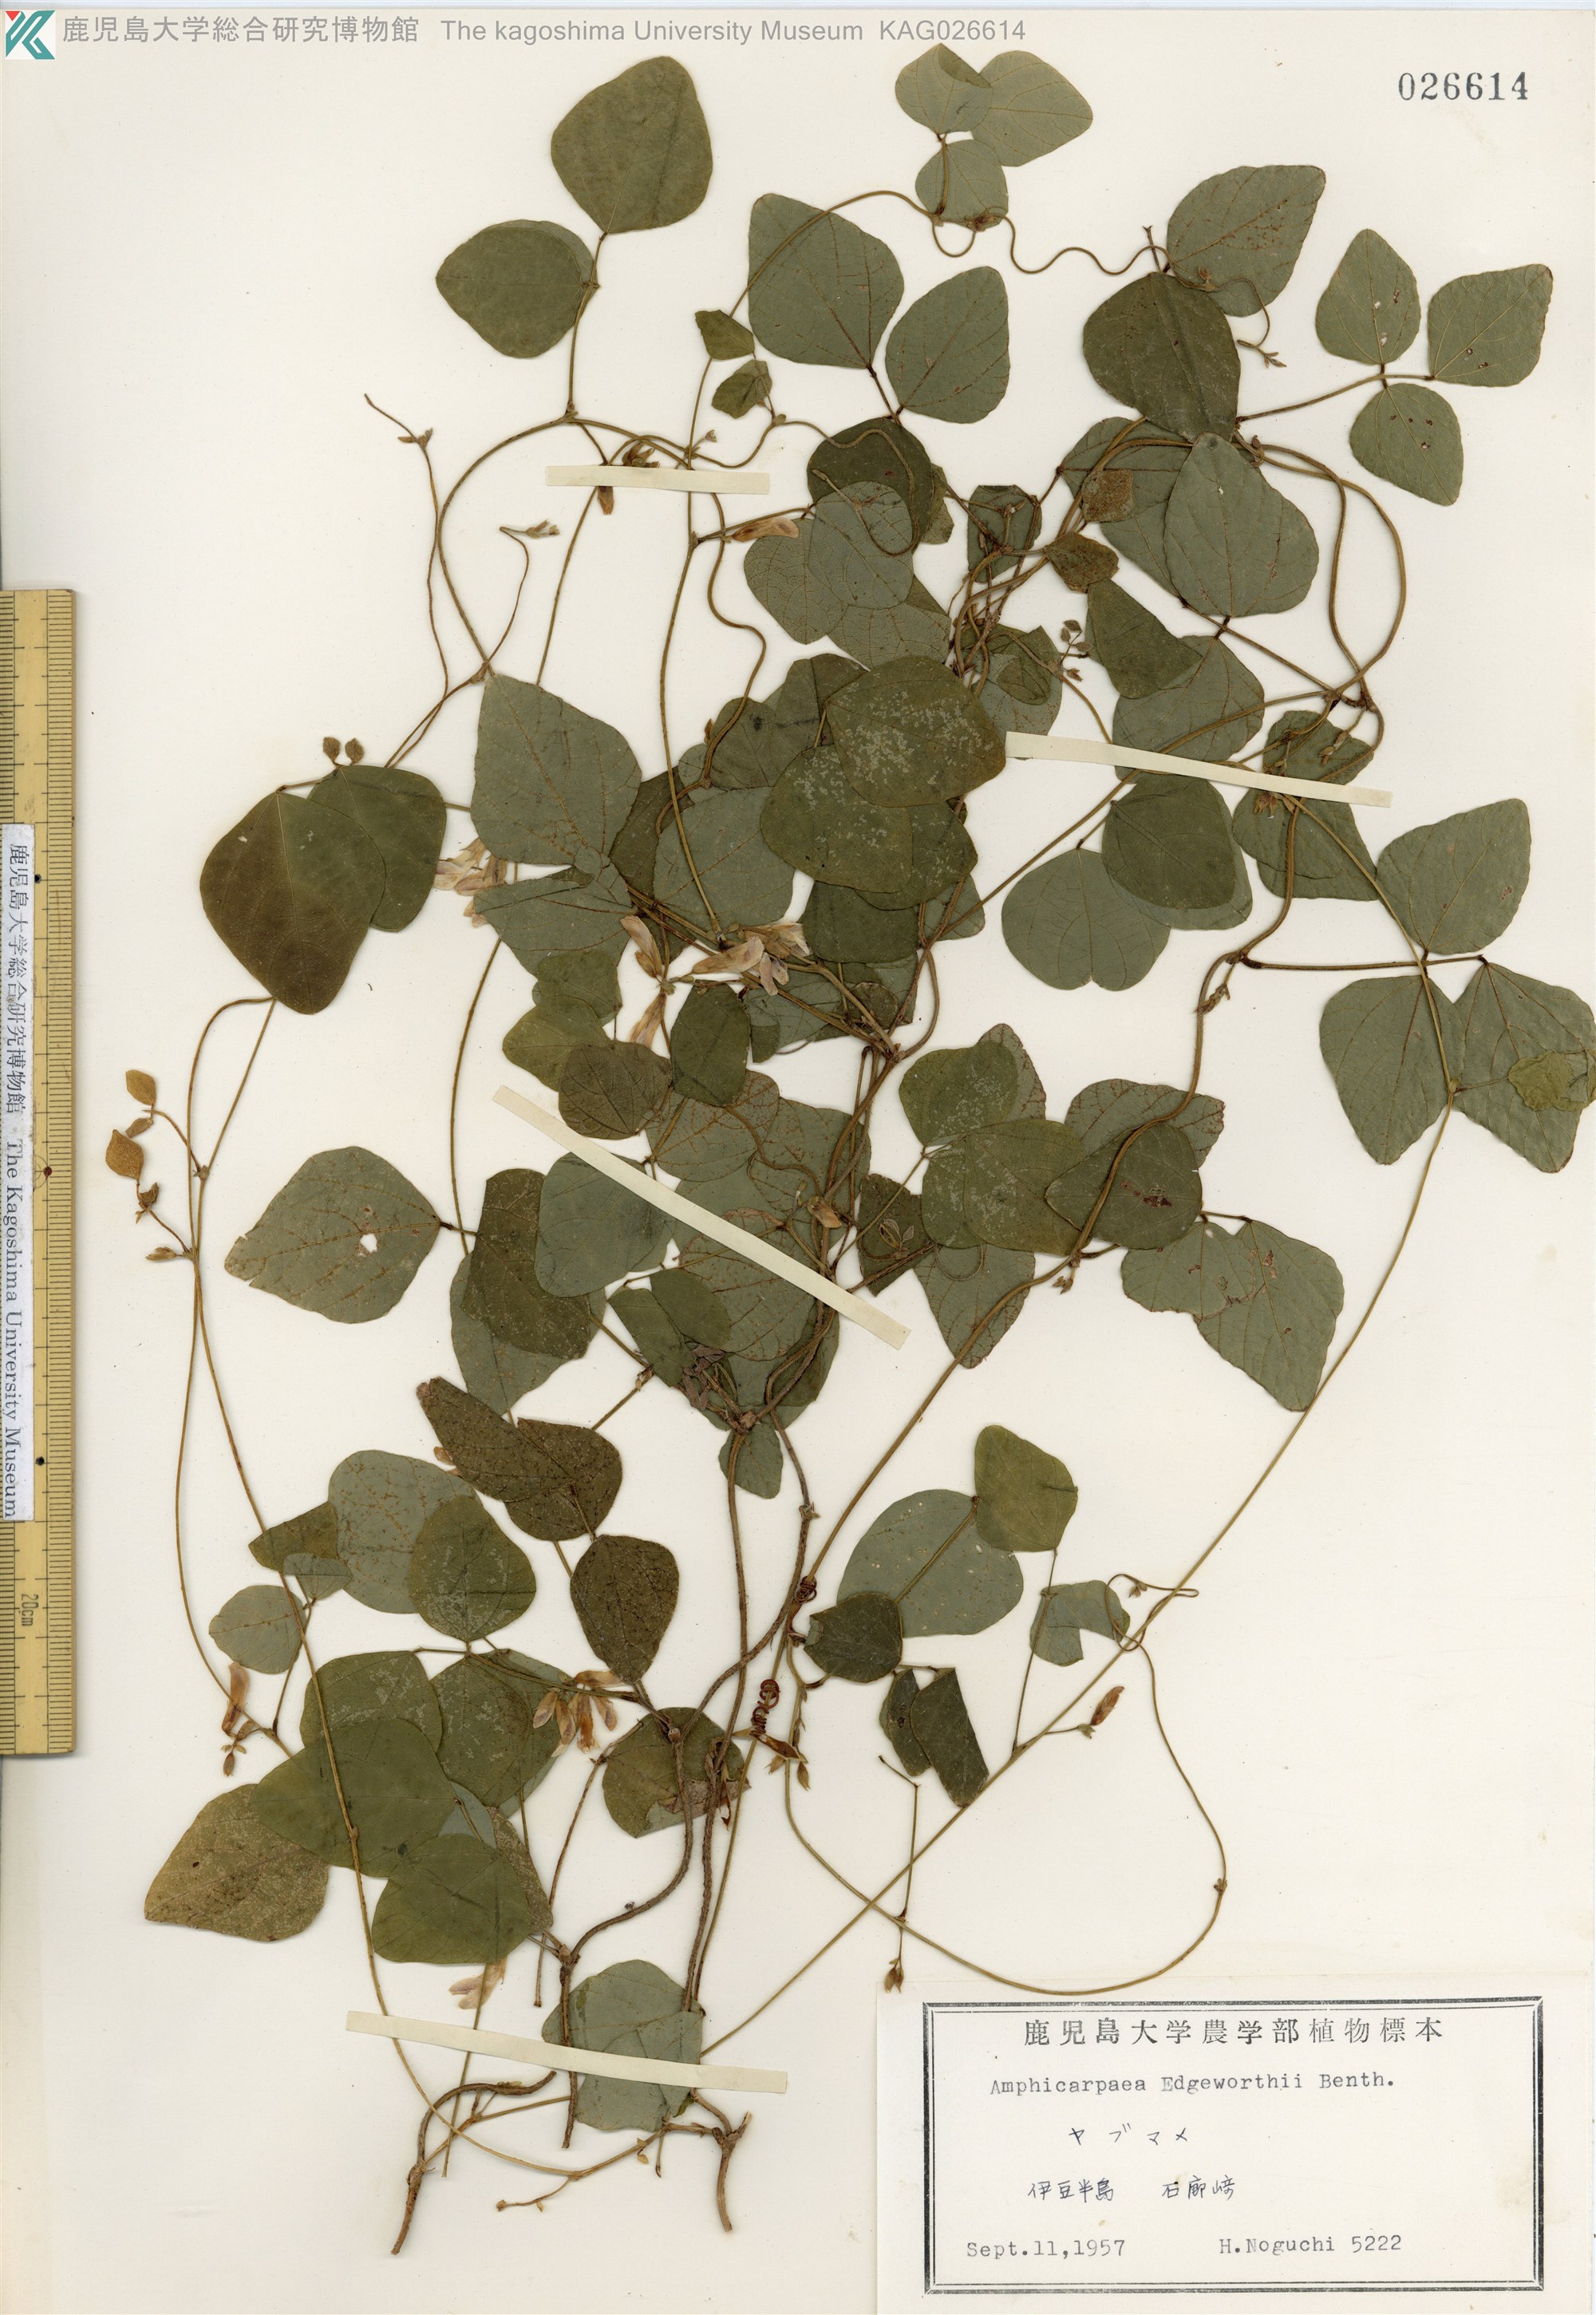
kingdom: Plantae
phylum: Tracheophyta
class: Magnoliopsida
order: Fabales
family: Fabaceae
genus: Amphicarpaea
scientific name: Amphicarpaea edgeworthii
